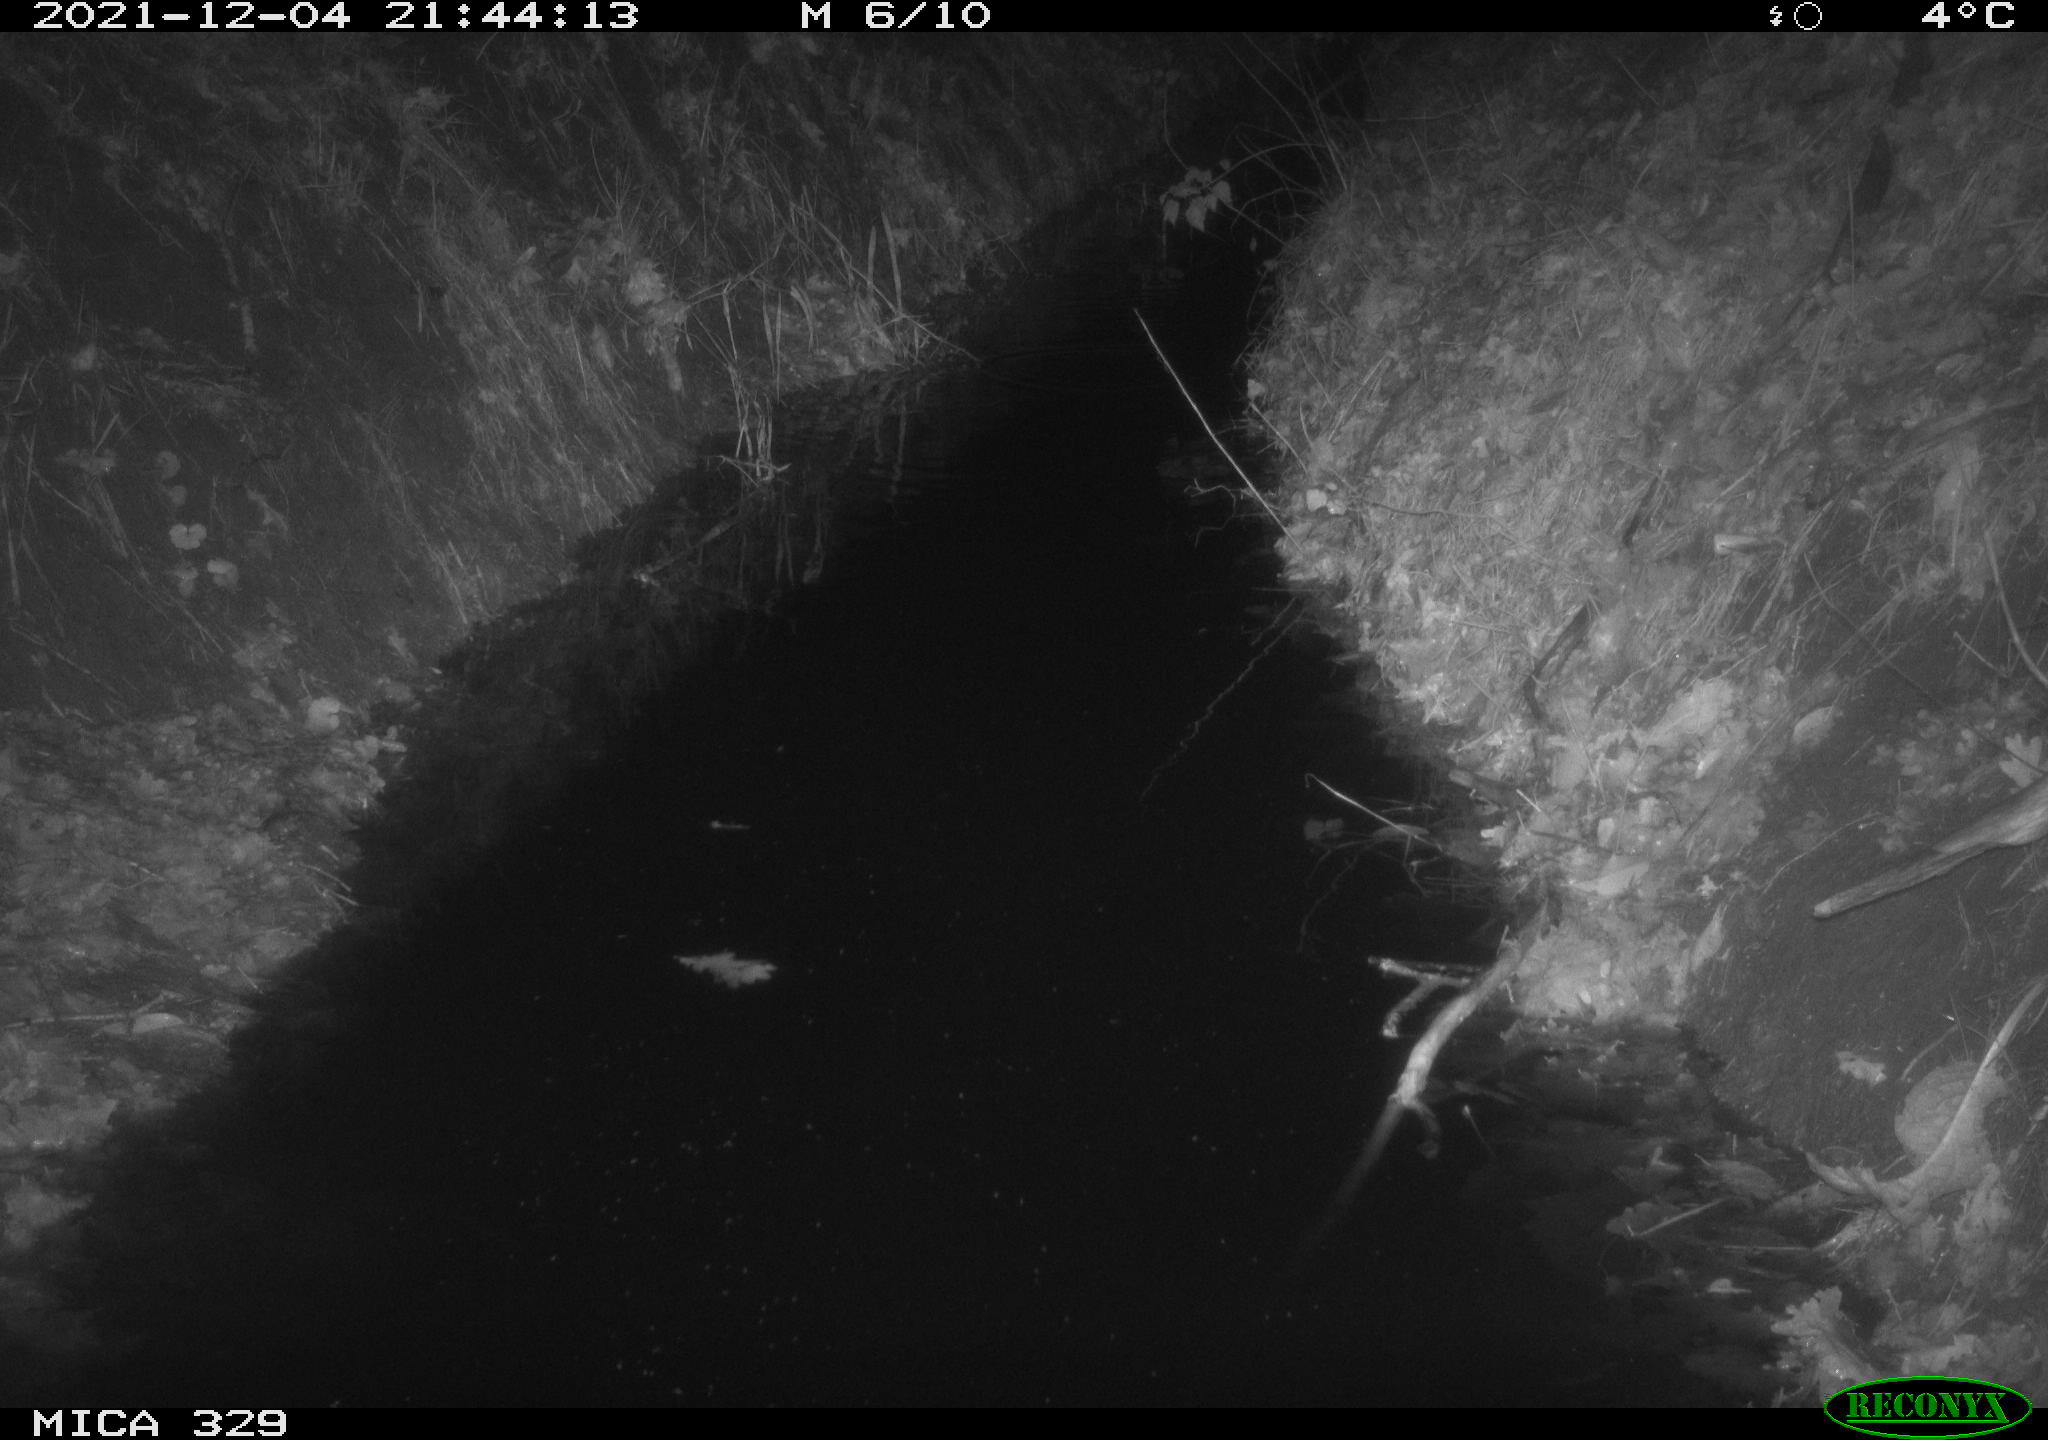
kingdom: Animalia
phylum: Chordata
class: Mammalia
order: Rodentia
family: Muridae
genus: Rattus
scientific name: Rattus norvegicus
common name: Brown rat
